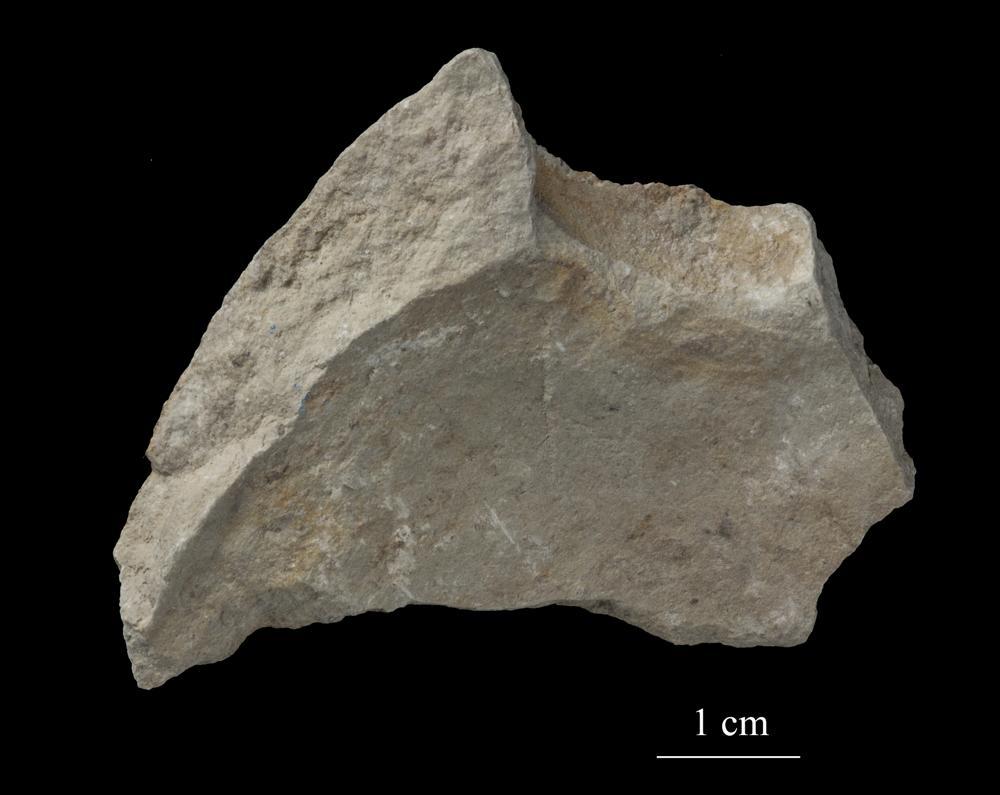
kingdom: Animalia
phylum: Mollusca
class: Gastropoda
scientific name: Gastropoda
